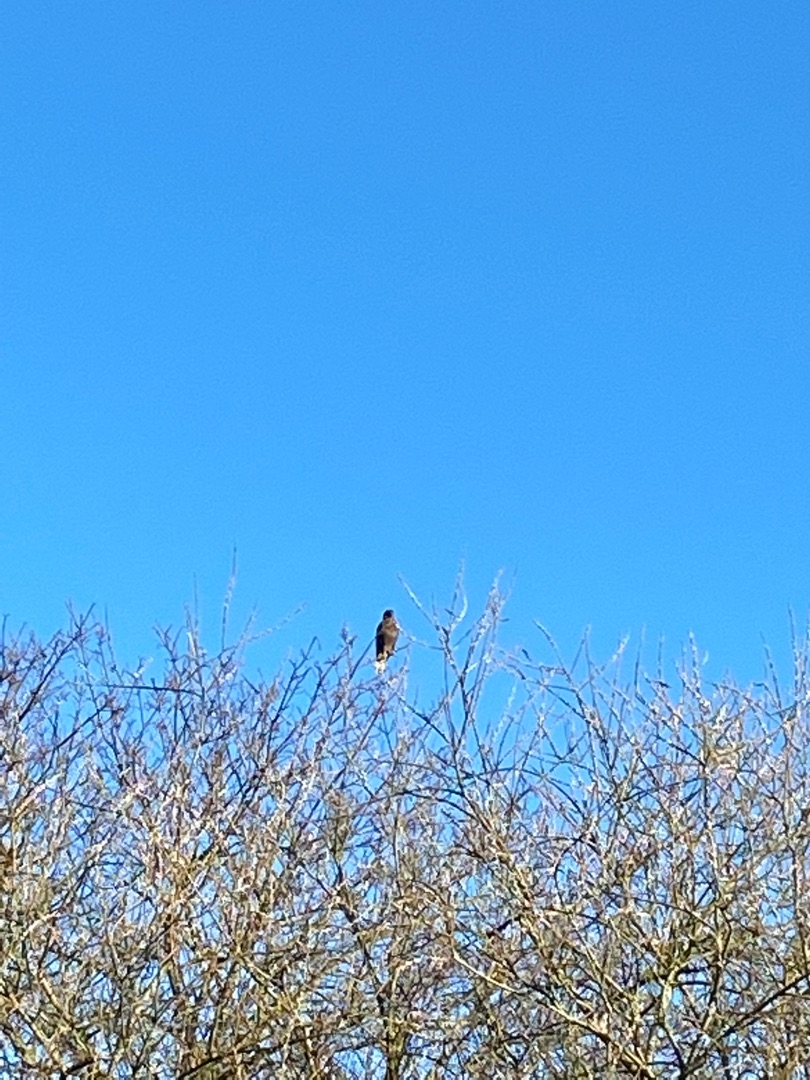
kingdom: Animalia
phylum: Chordata
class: Aves
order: Accipitriformes
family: Accipitridae
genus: Buteo
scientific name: Buteo buteo
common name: Musvåge
